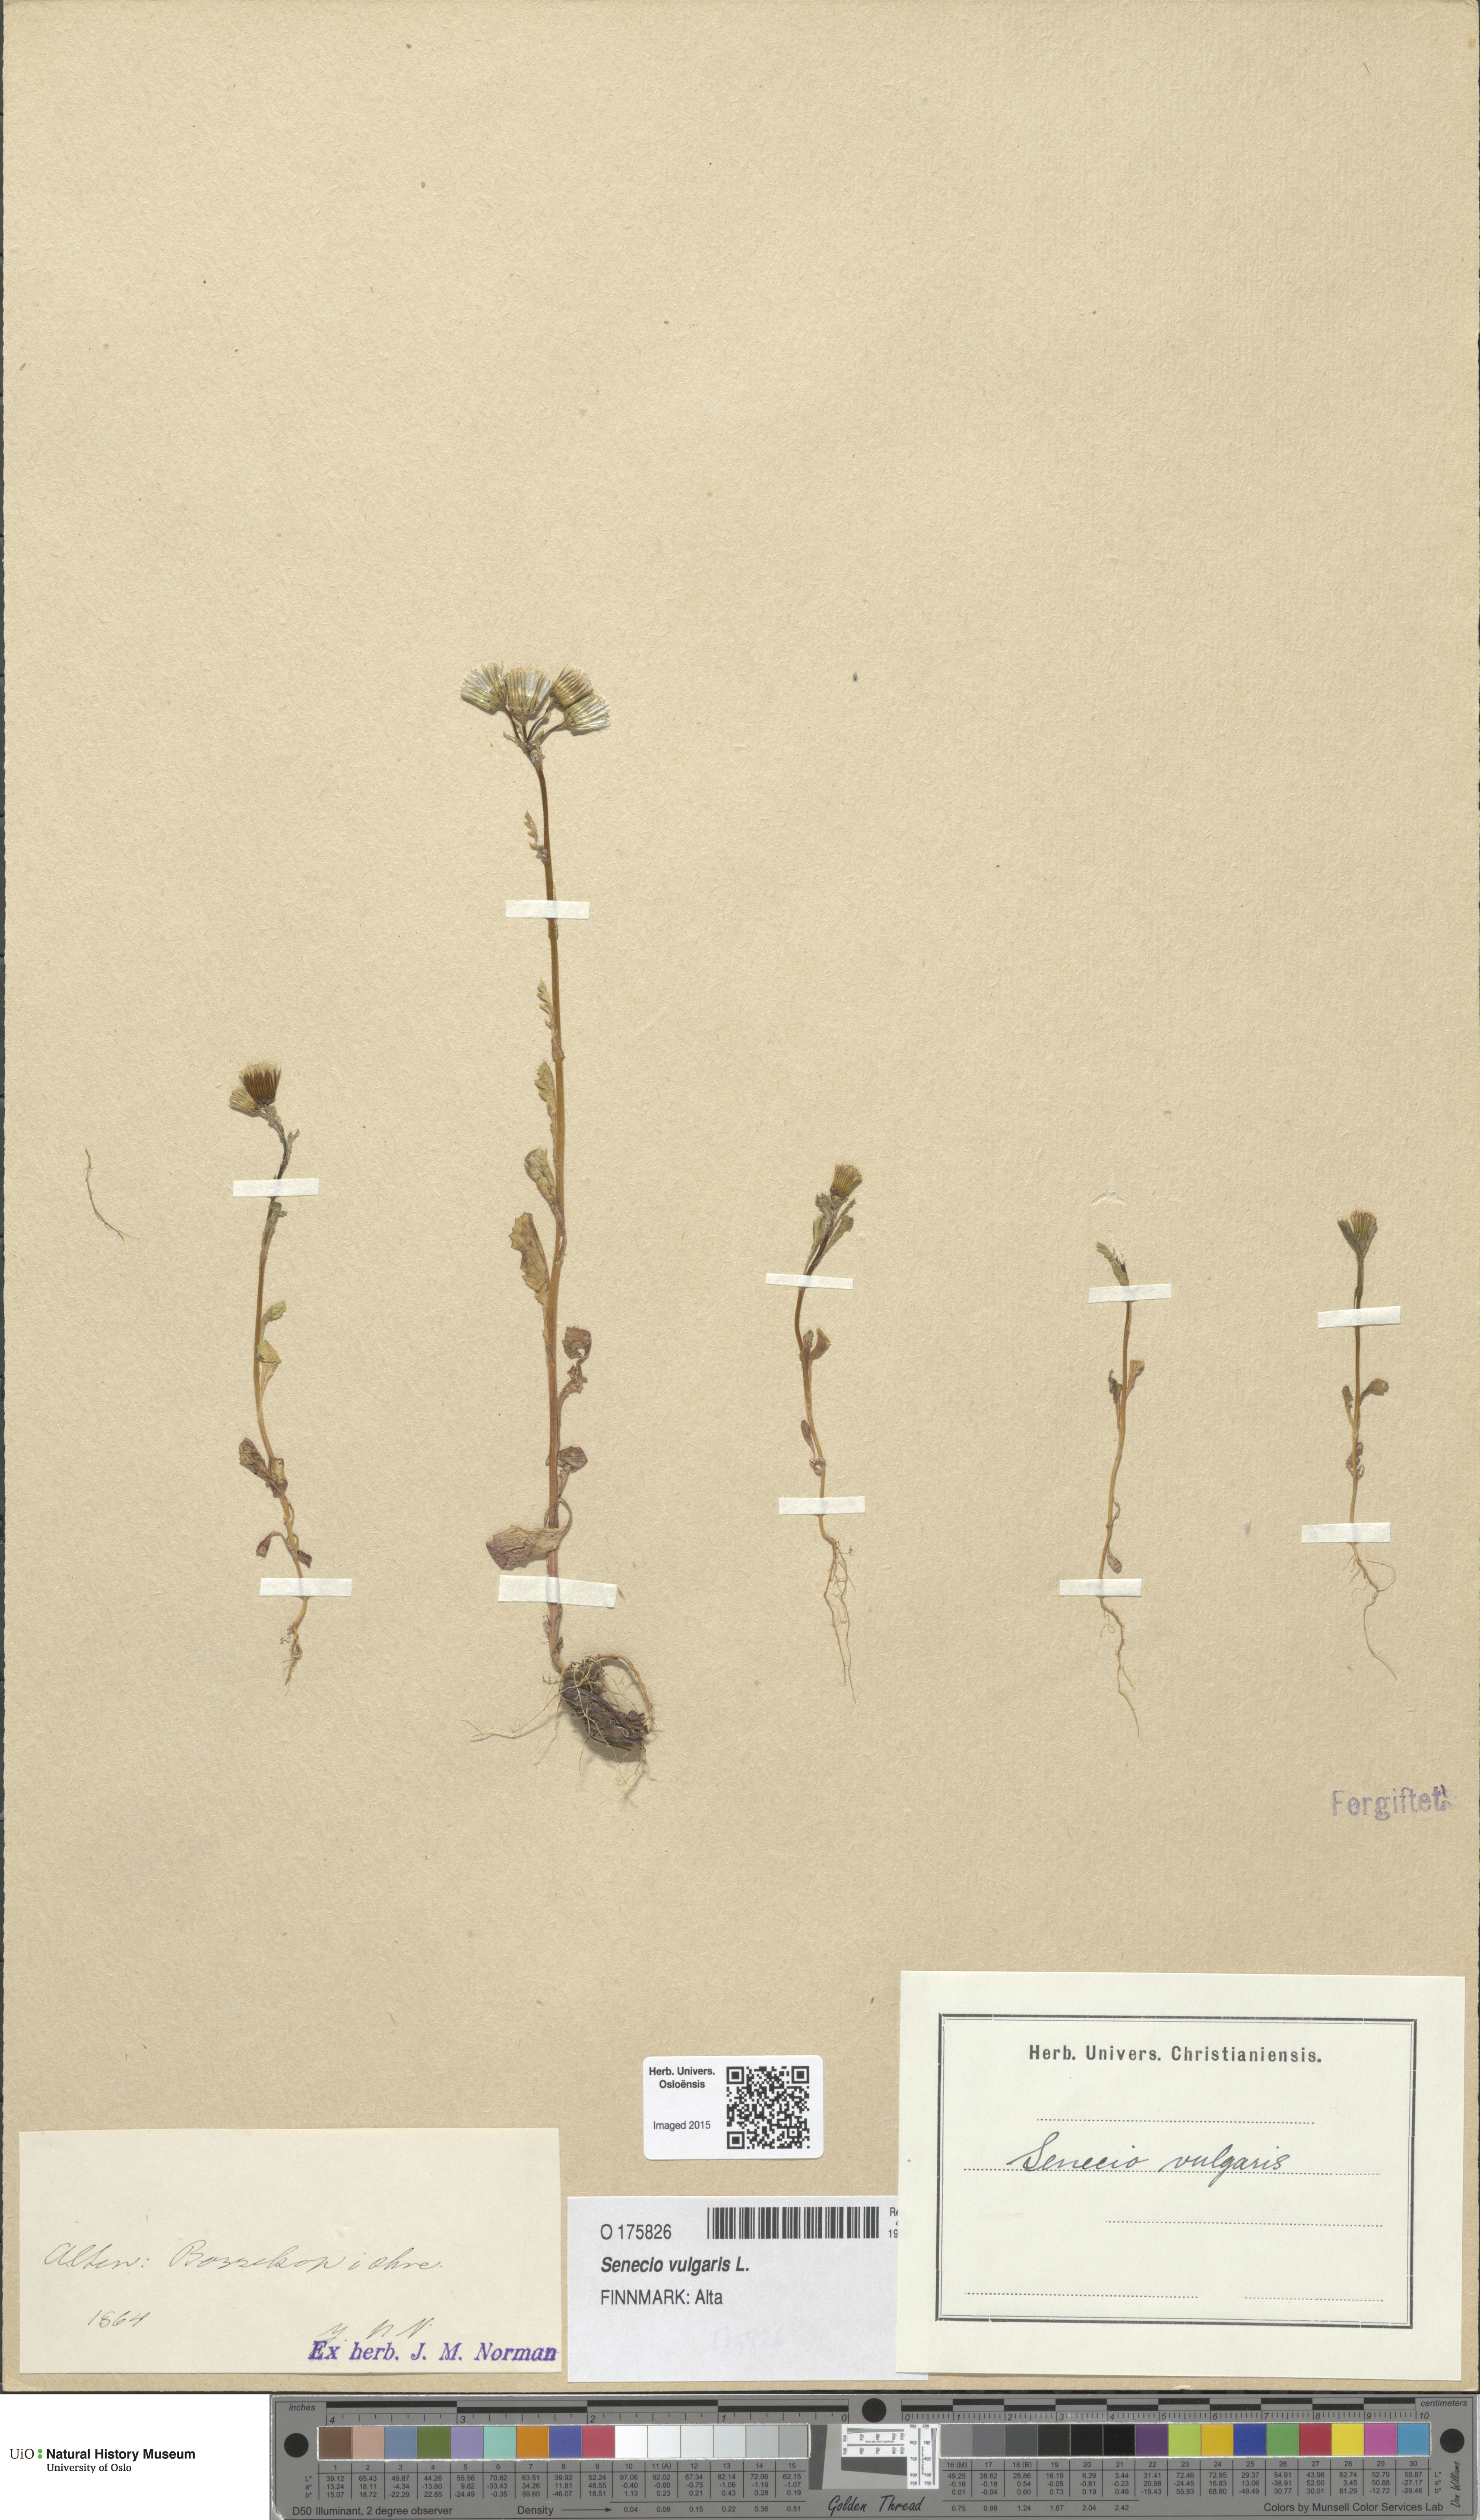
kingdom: Plantae
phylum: Tracheophyta
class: Magnoliopsida
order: Asterales
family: Asteraceae
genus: Senecio
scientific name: Senecio vulgaris
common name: Old-man-in-the-spring
